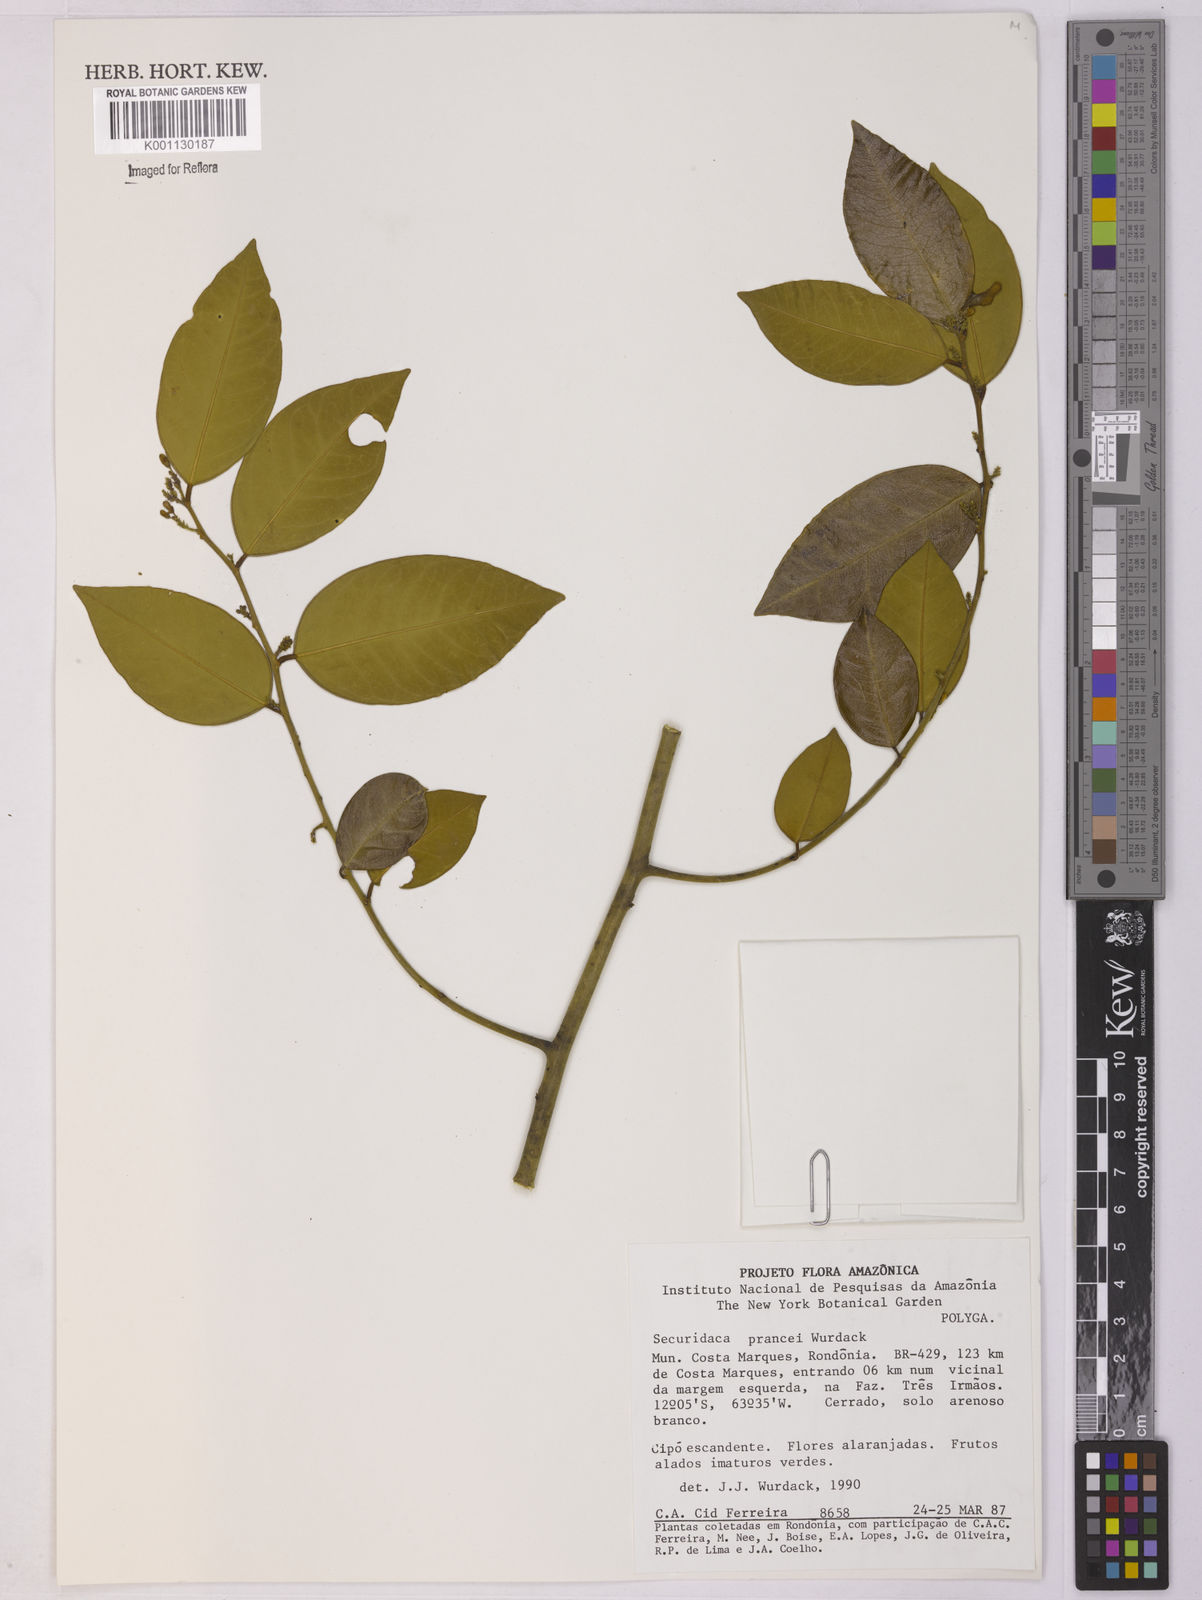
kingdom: Plantae
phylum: Tracheophyta
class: Magnoliopsida
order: Fabales
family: Polygalaceae
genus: Securidaca
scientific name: Securidaca prancei
